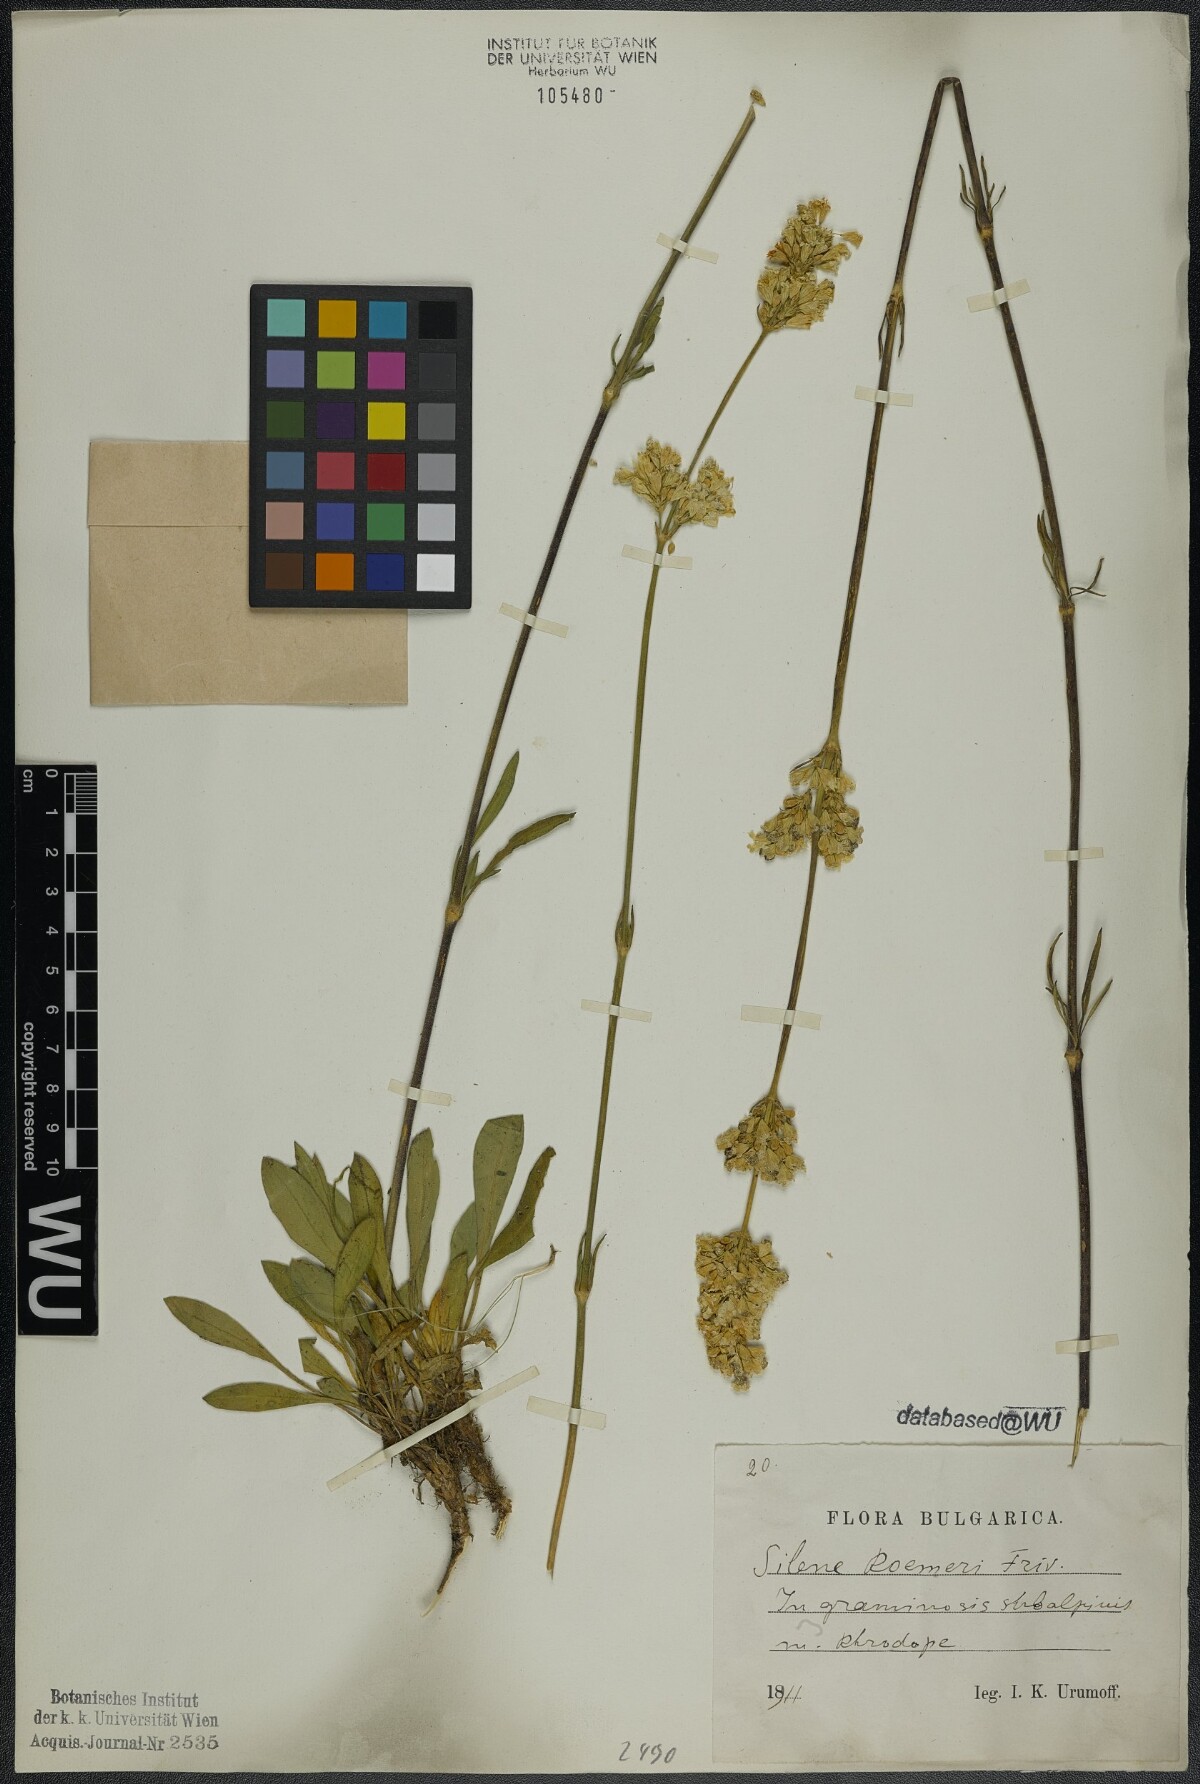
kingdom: Plantae
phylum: Tracheophyta
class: Magnoliopsida
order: Caryophyllales
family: Caryophyllaceae
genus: Silene
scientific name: Silene roemeri
